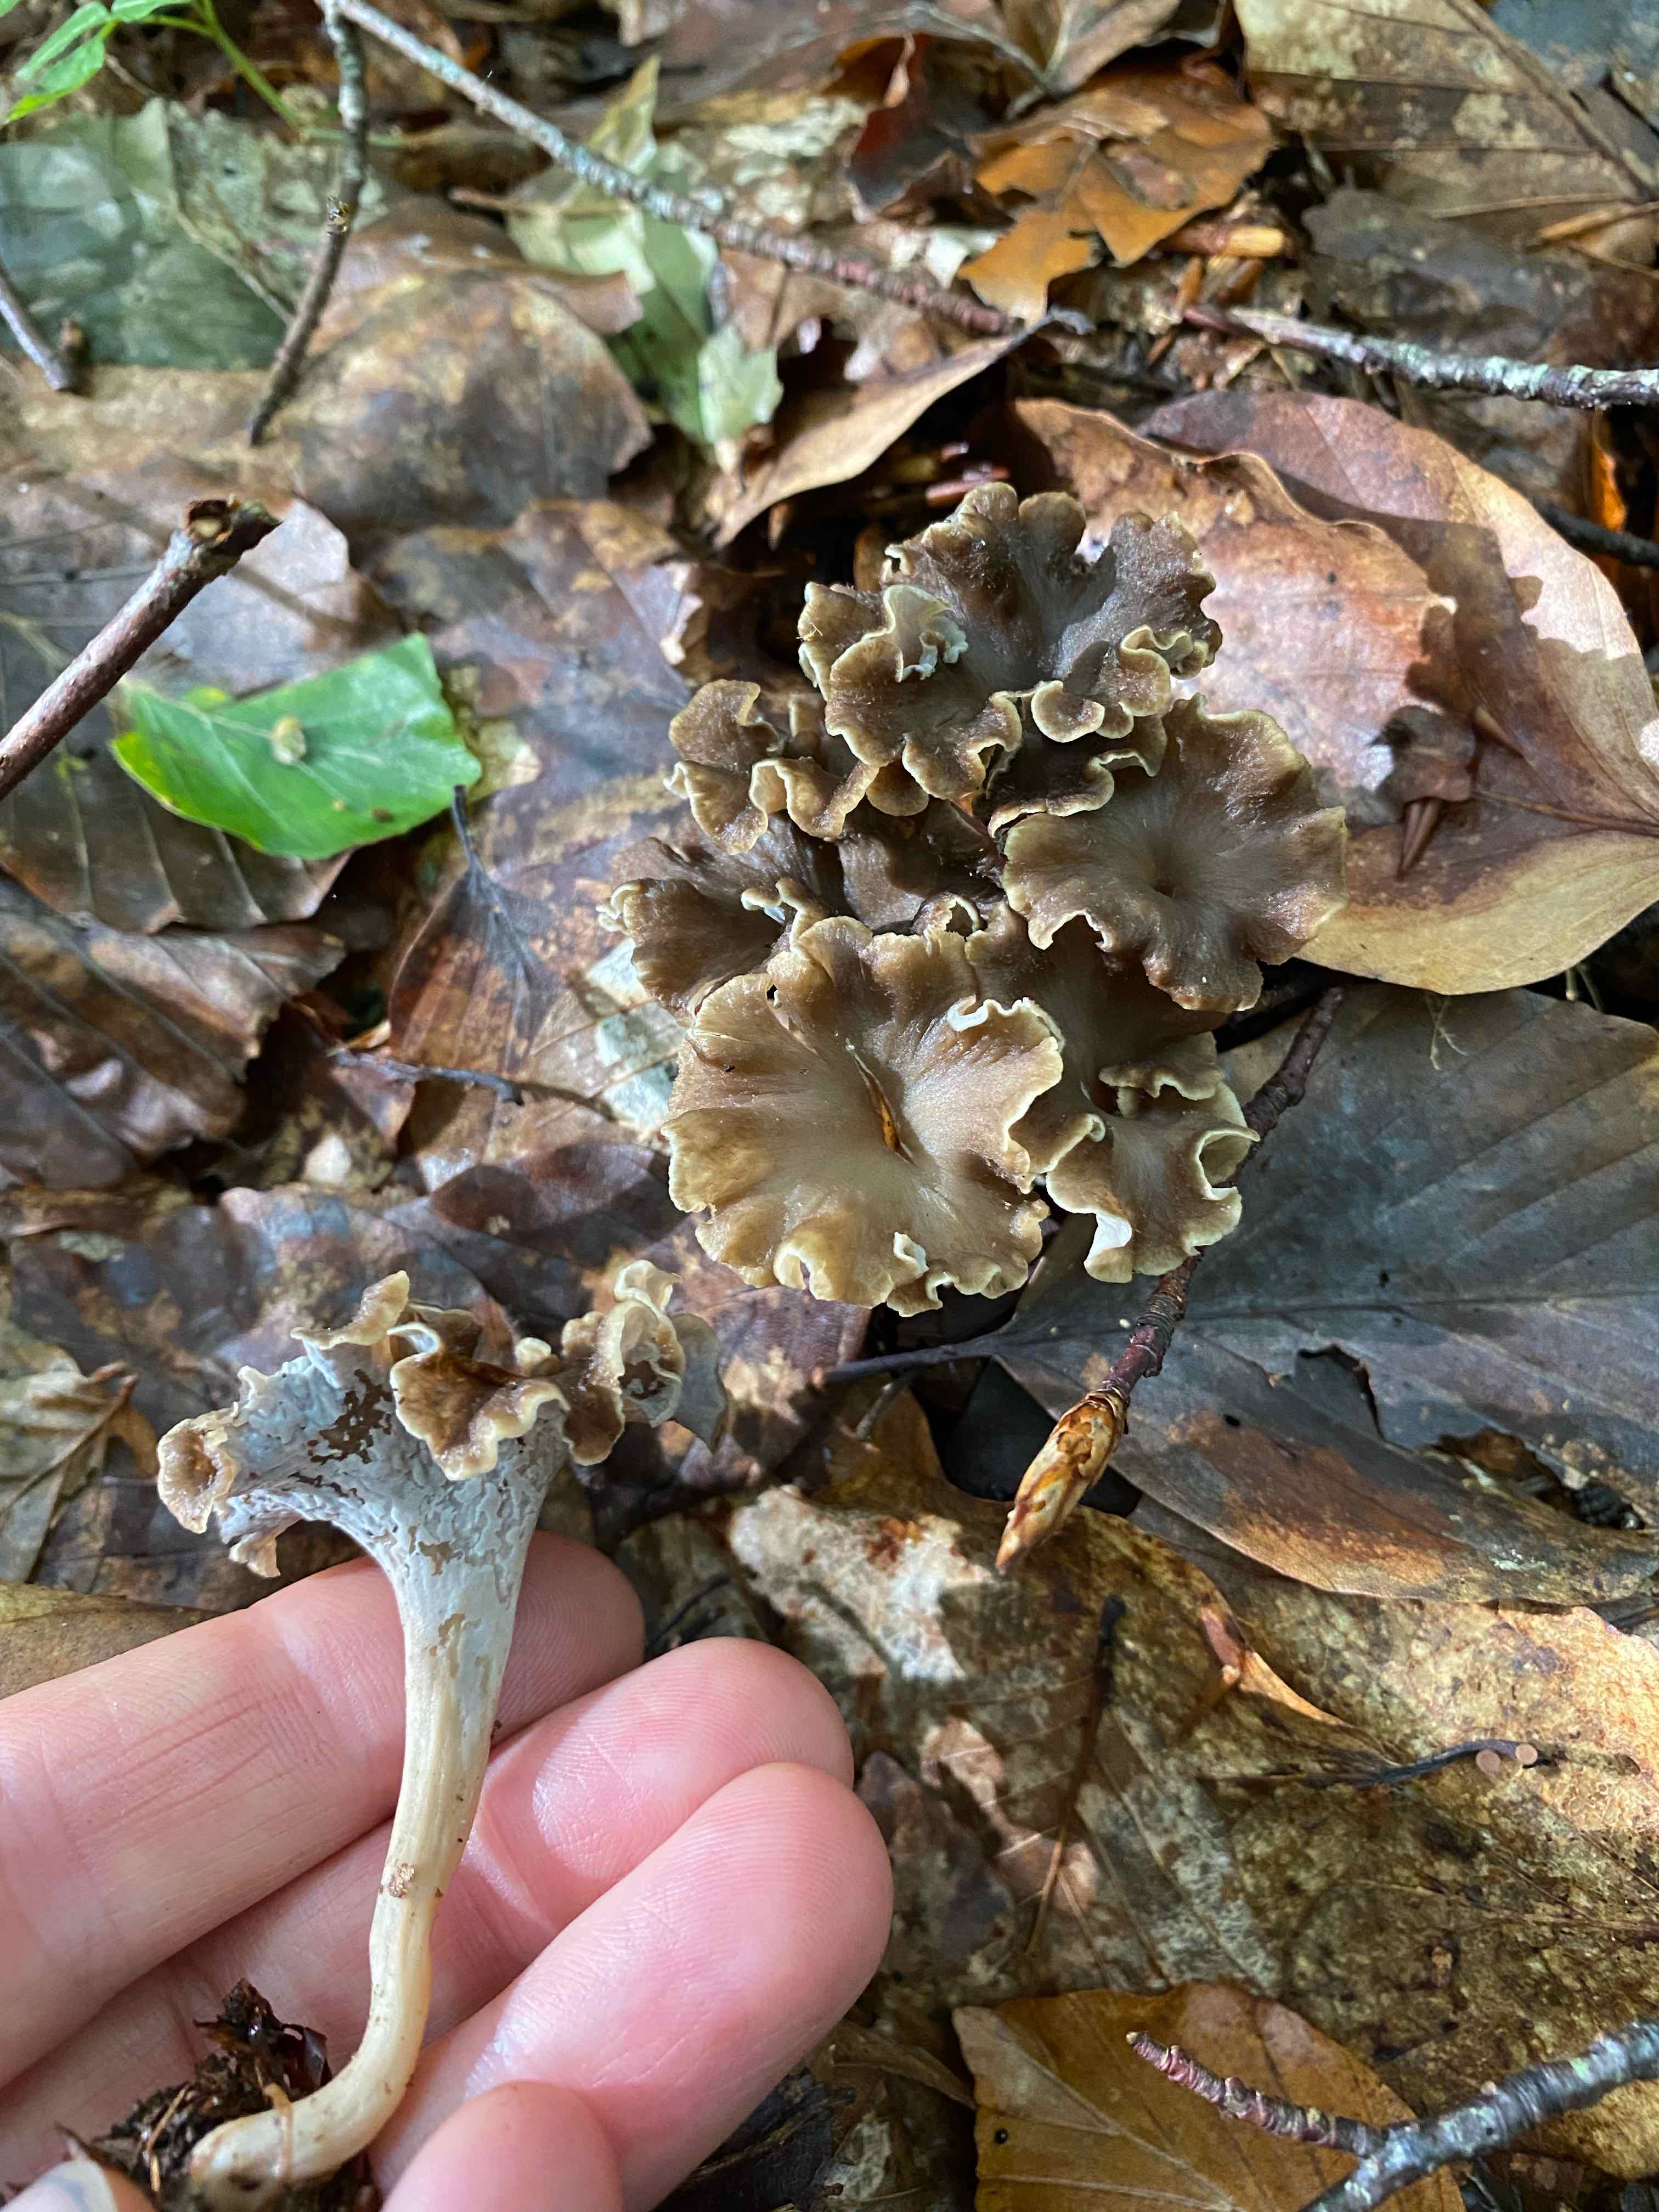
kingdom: Fungi
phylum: Basidiomycota
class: Agaricomycetes
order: Cantharellales
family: Hydnaceae
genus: Craterellus
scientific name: Craterellus undulatus
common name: liden kantarel
